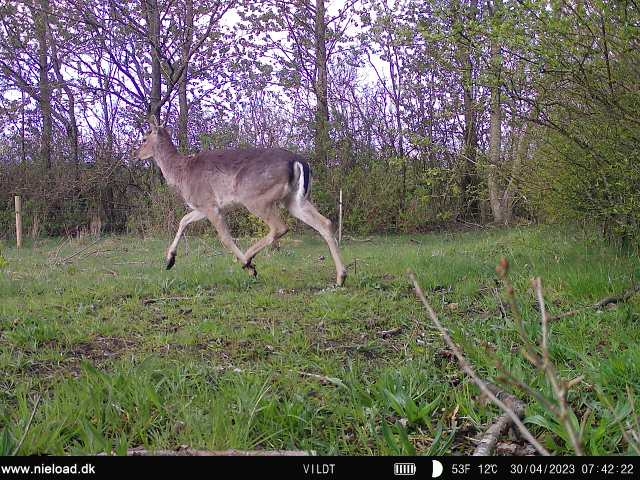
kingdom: Animalia
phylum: Chordata
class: Mammalia
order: Artiodactyla
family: Cervidae
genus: Dama
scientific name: Dama dama
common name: Dådyr
